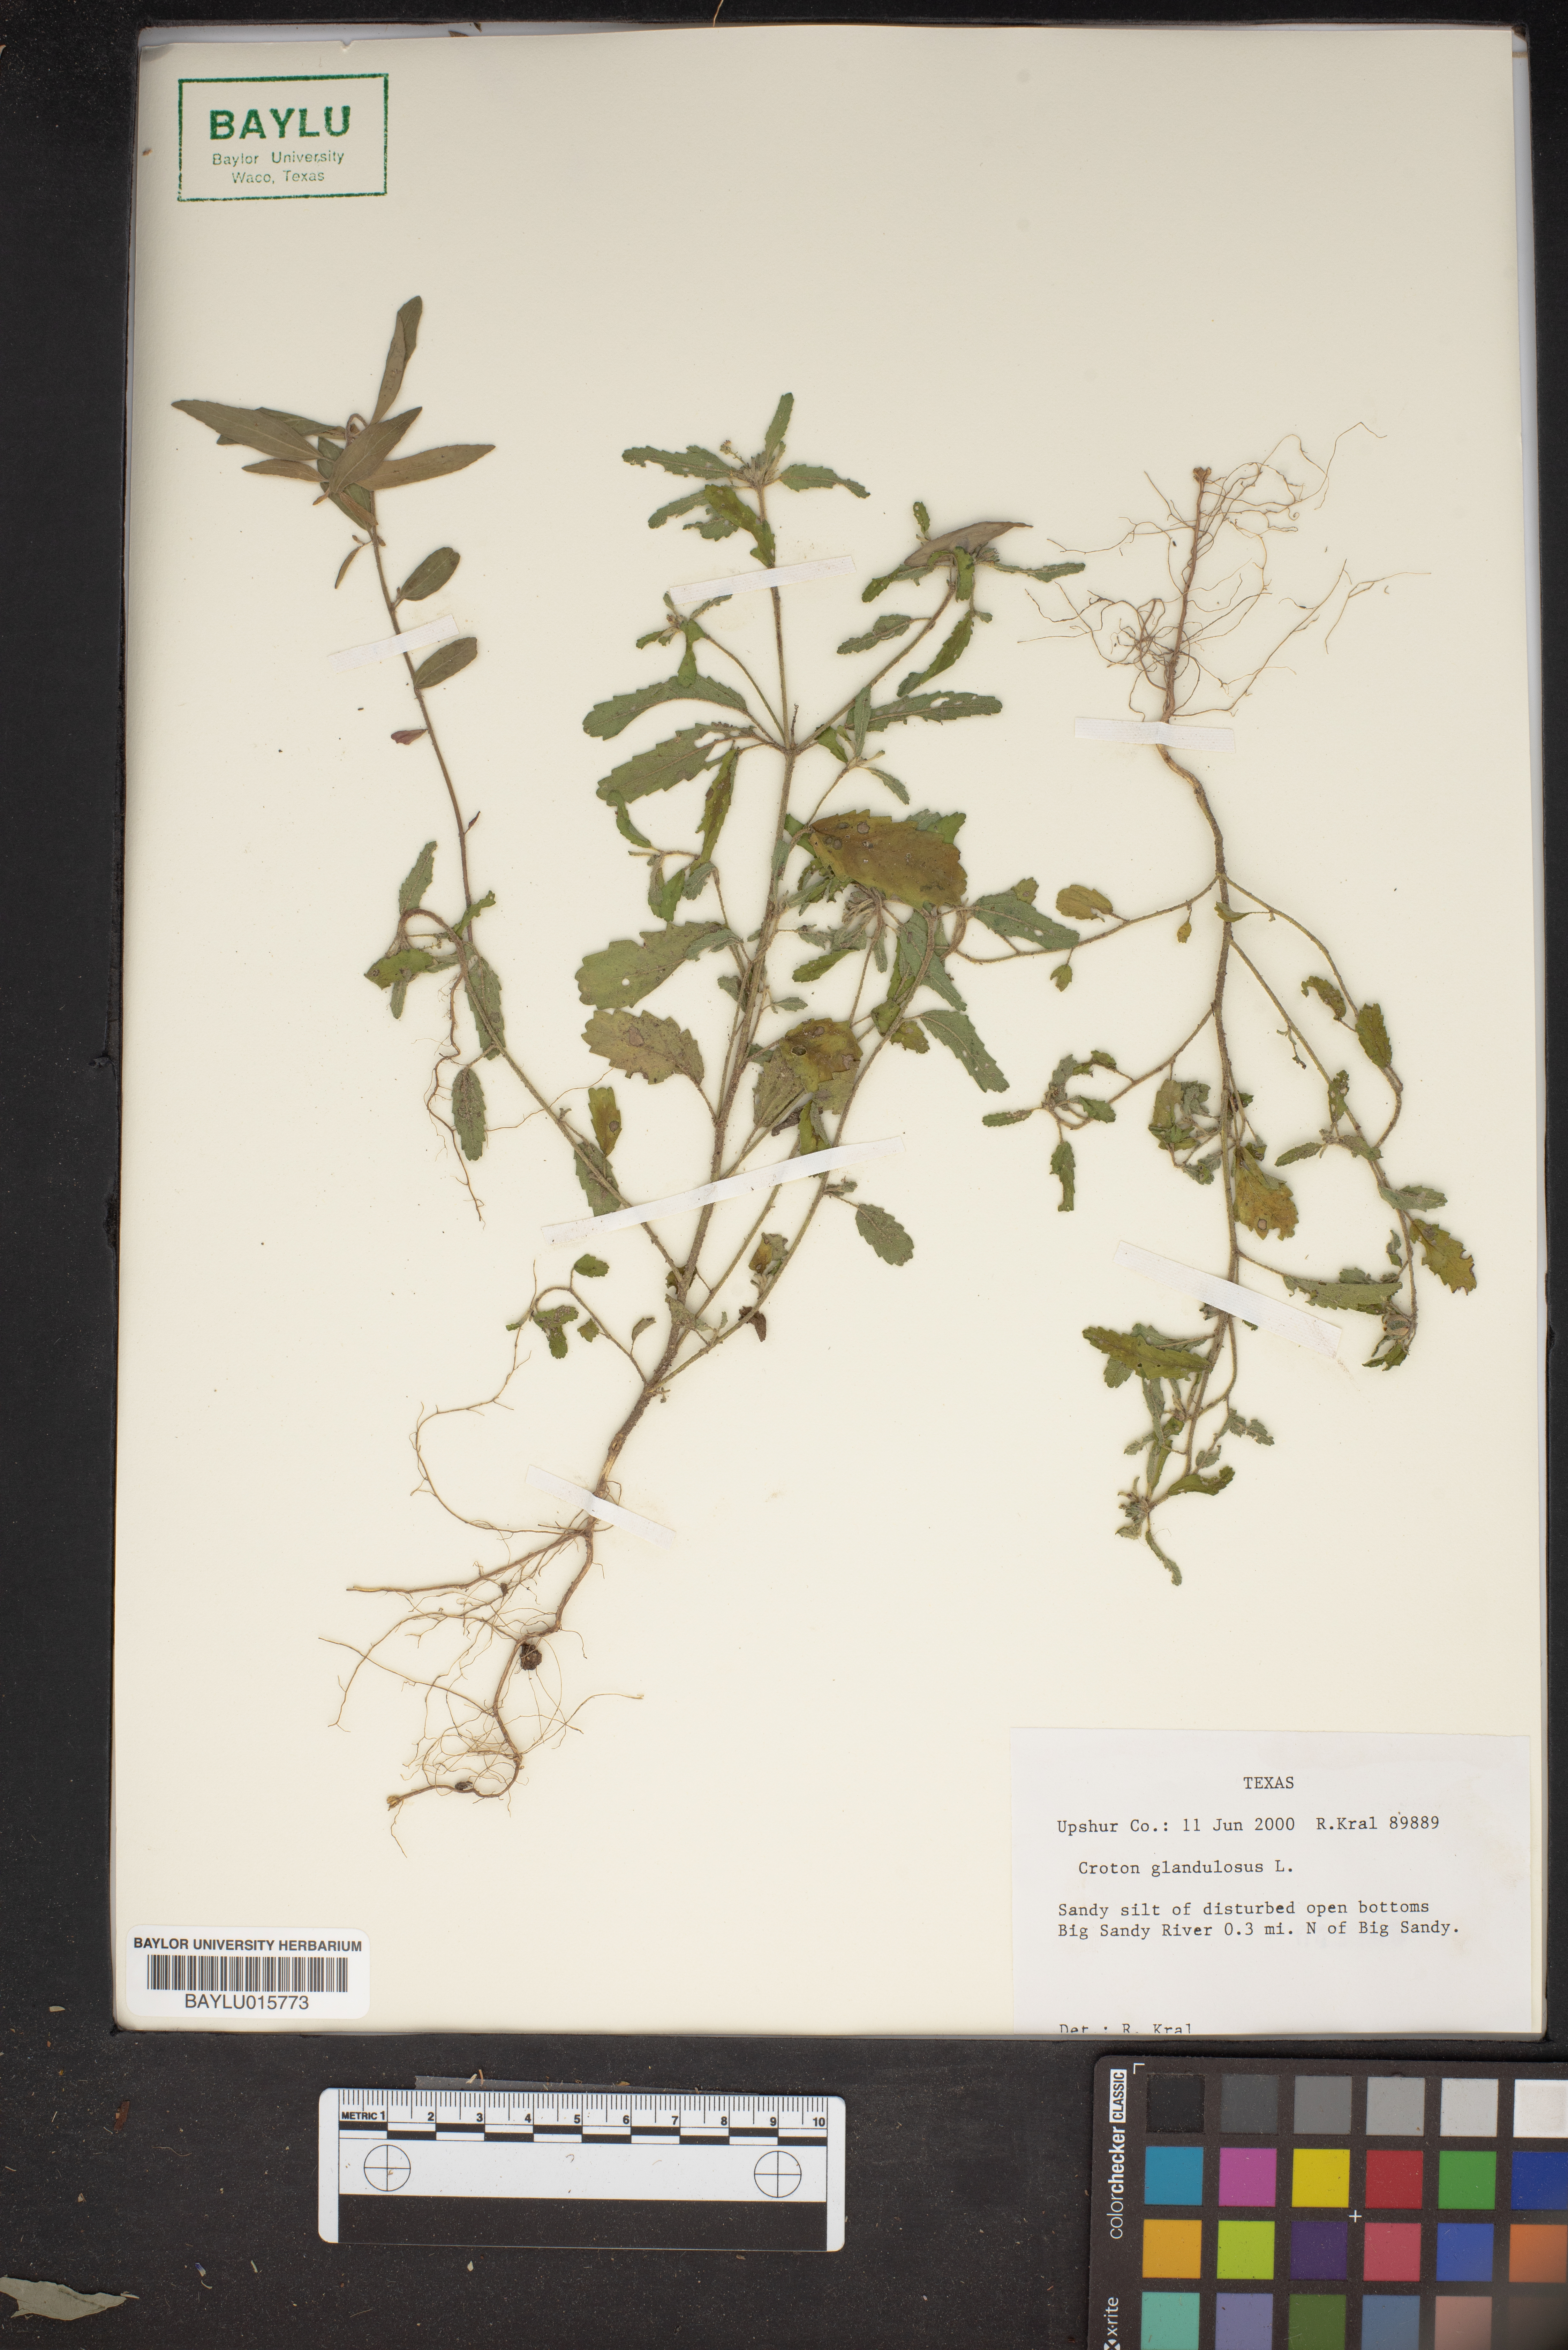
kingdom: Plantae
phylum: Tracheophyta
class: Magnoliopsida
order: Malpighiales
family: Euphorbiaceae
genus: Croton
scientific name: Croton glandulosus
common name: Tropic croton
